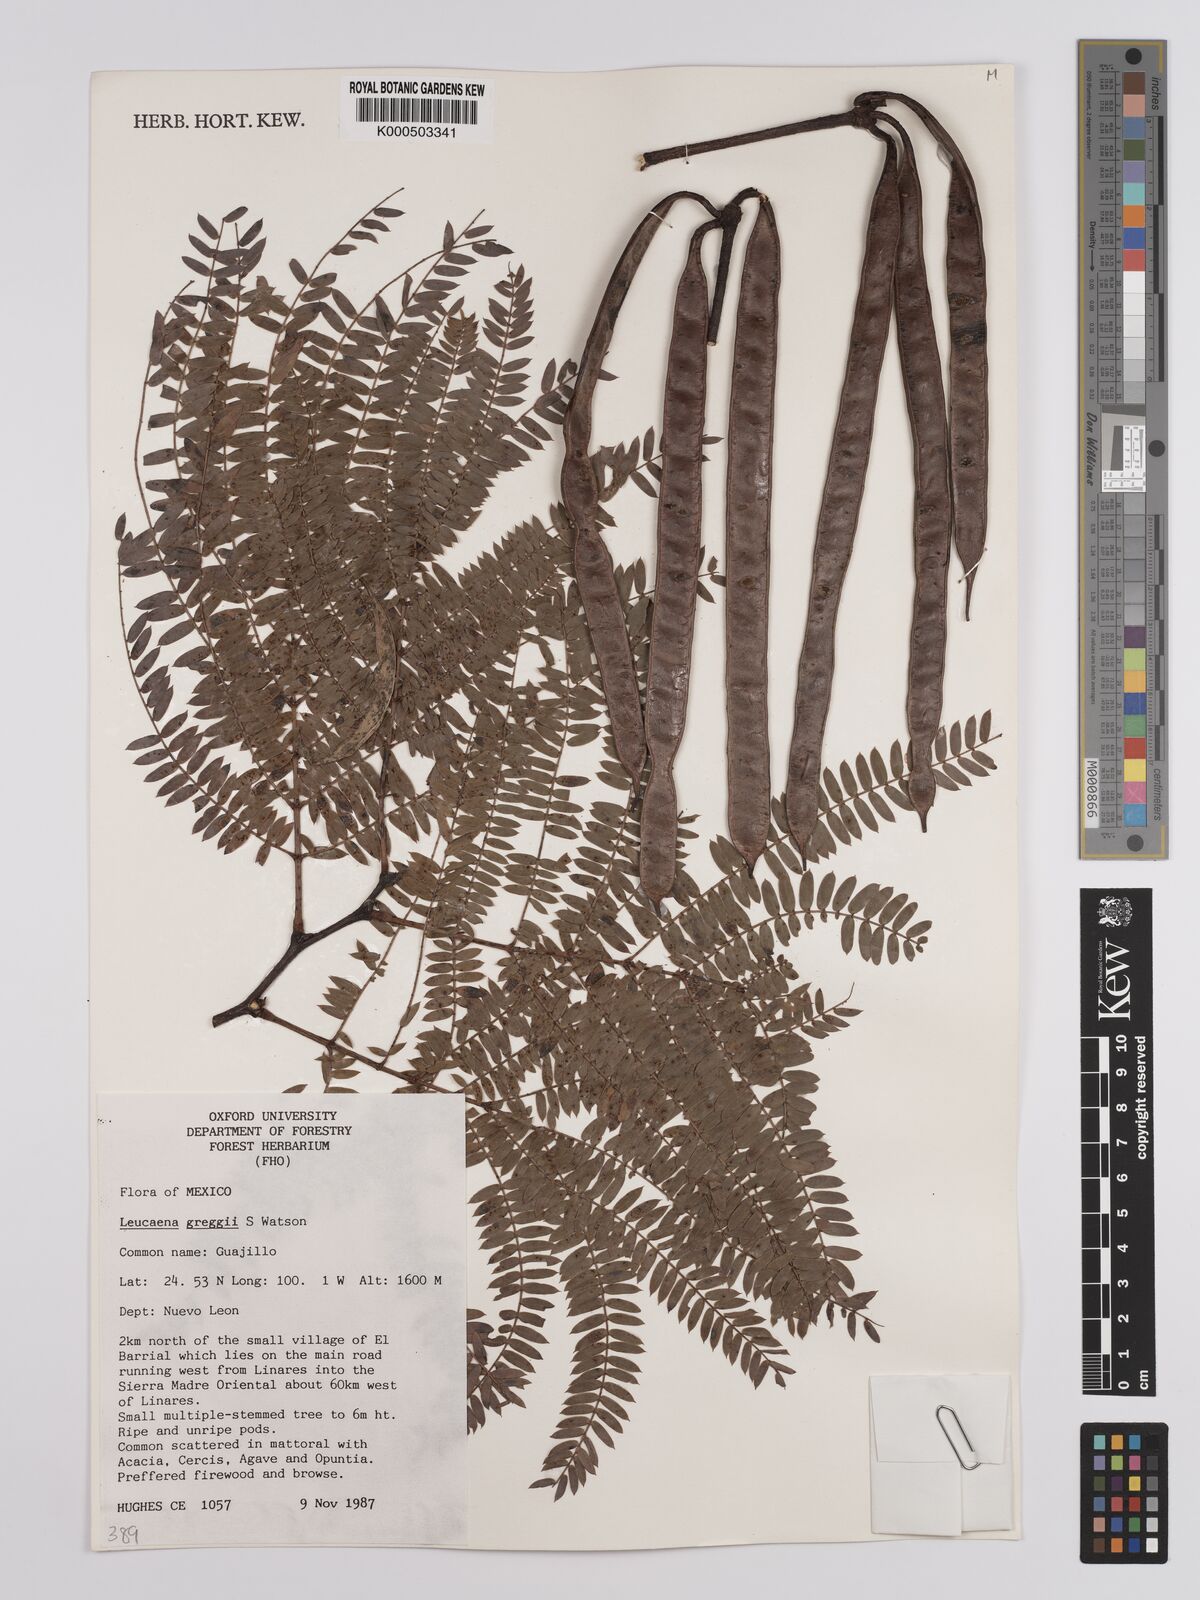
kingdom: Plantae
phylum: Tracheophyta
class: Magnoliopsida
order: Fabales
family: Fabaceae
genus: Leucaena
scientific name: Leucaena greggii
